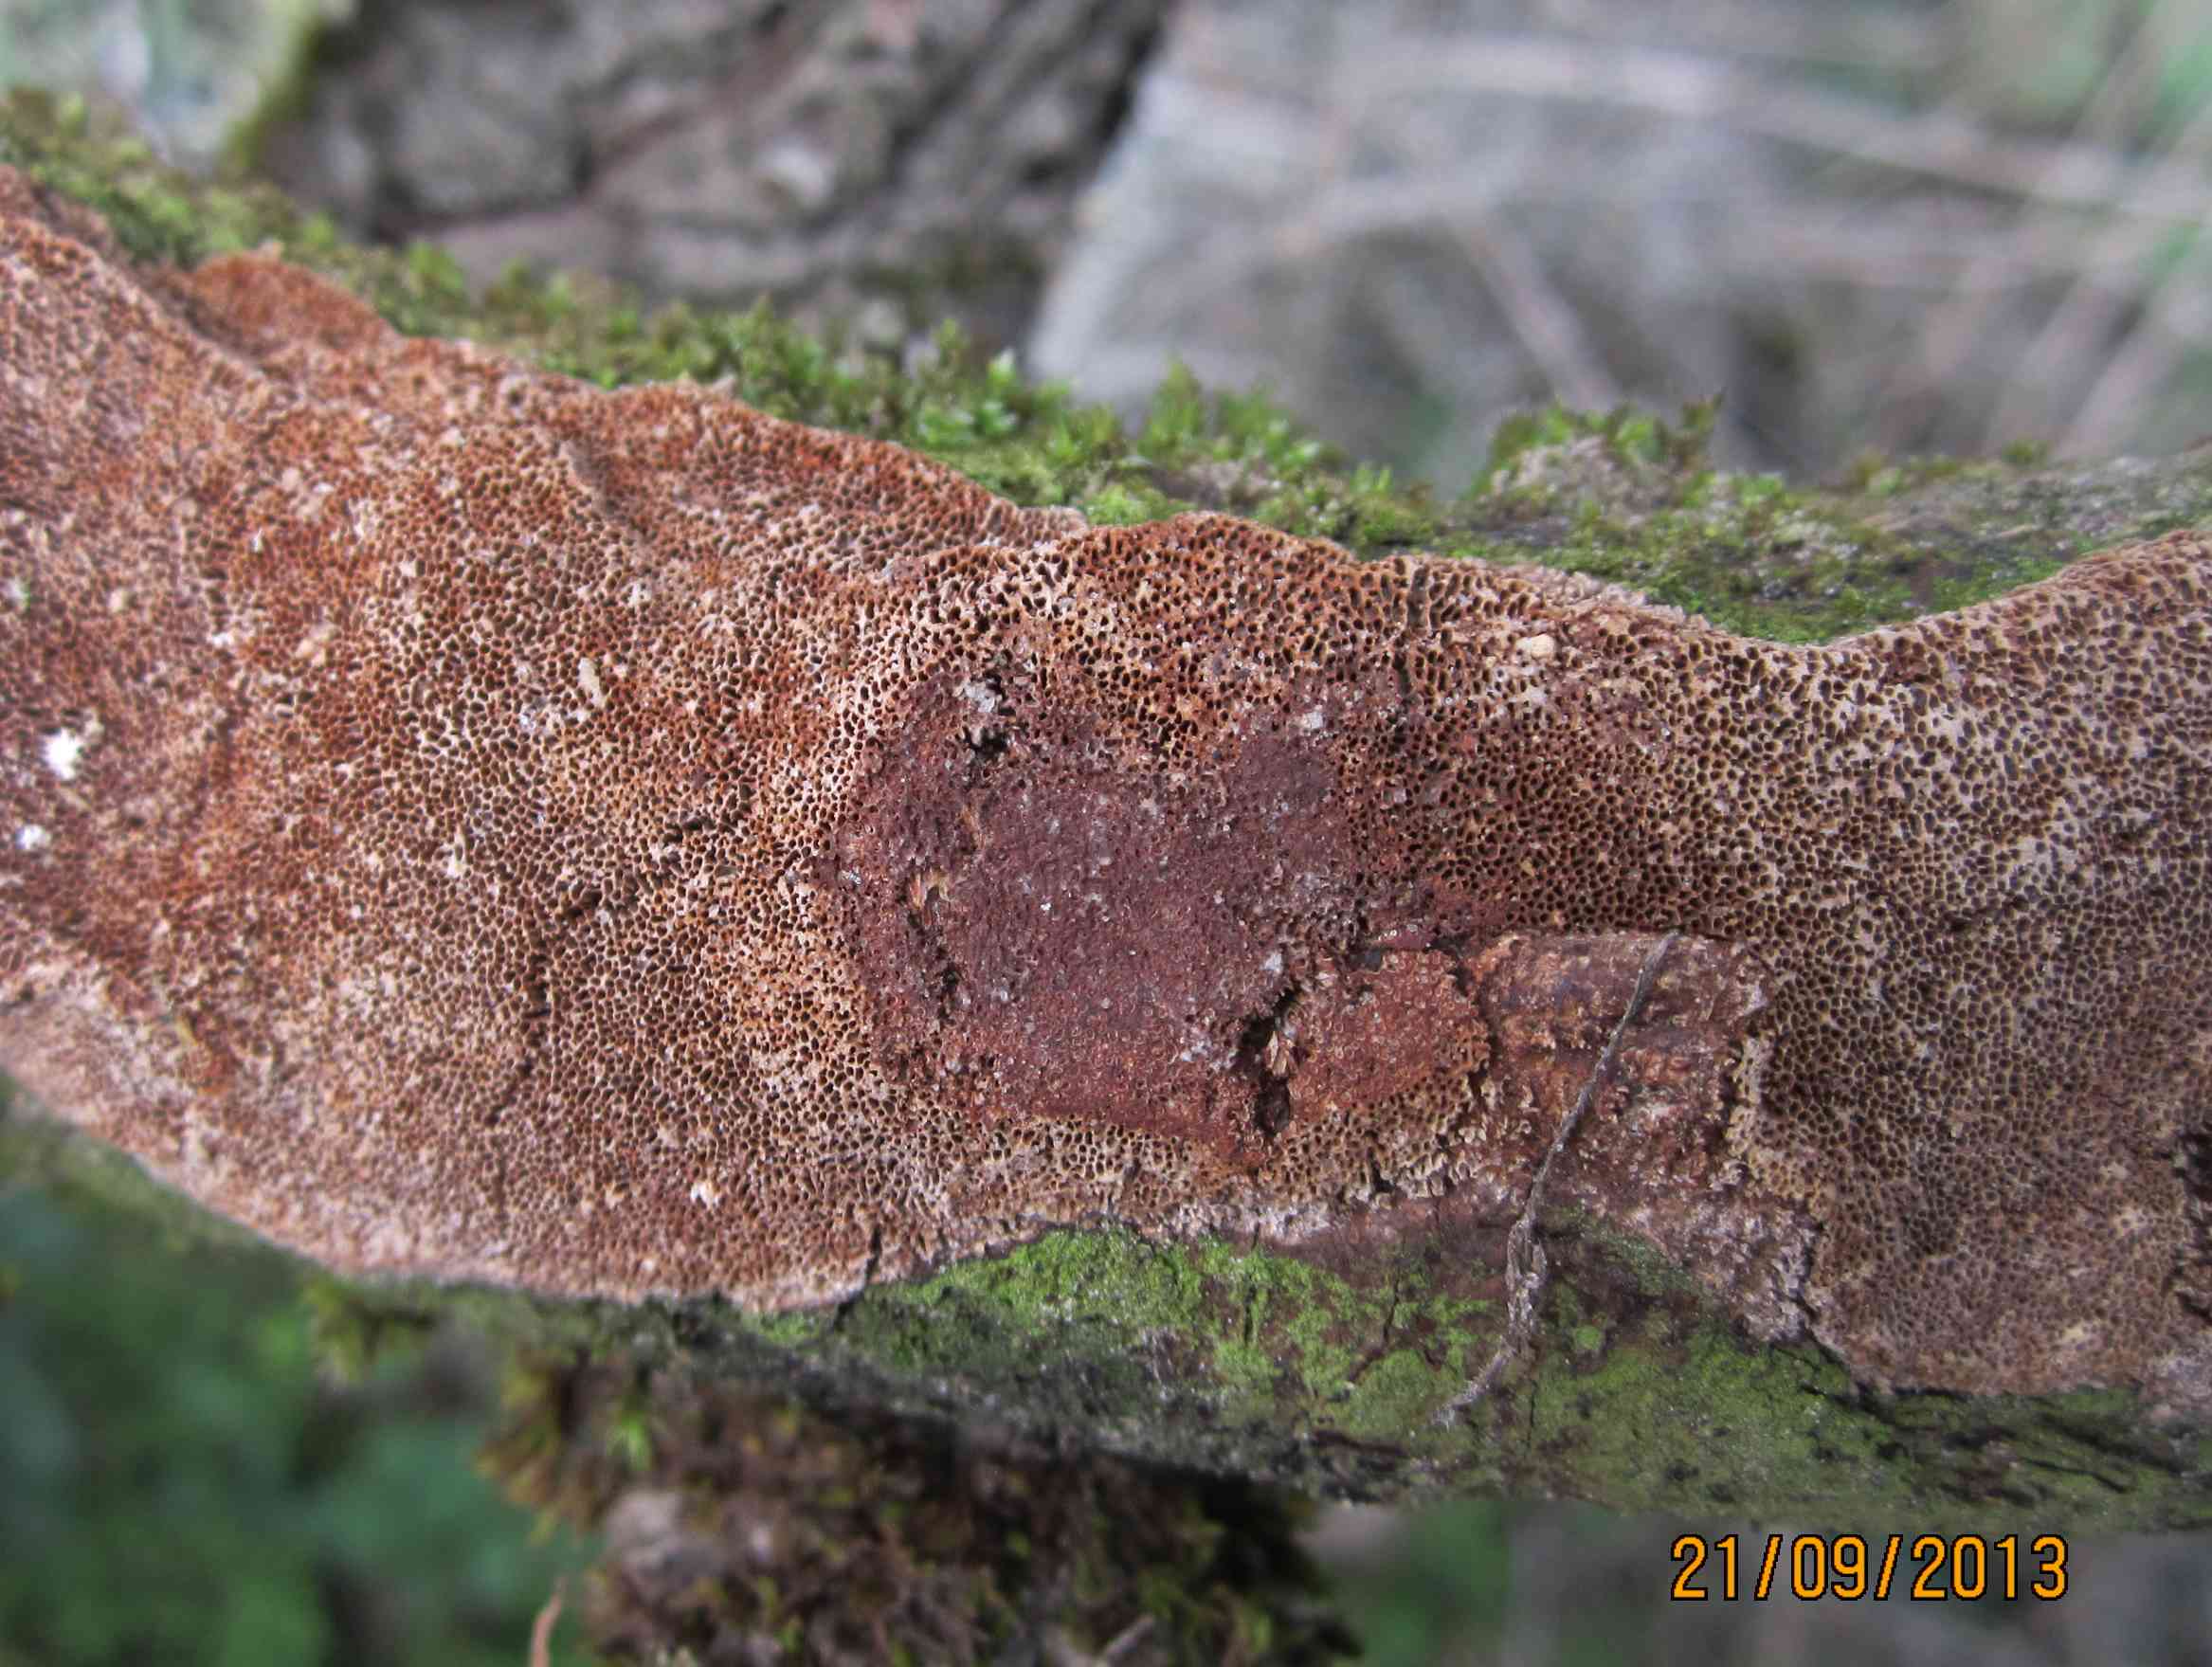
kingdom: Fungi
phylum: Basidiomycota
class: Agaricomycetes
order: Hymenochaetales
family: Hymenochaetaceae
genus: Fuscoporia
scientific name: Fuscoporia contigua
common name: grov ildporesvamp
